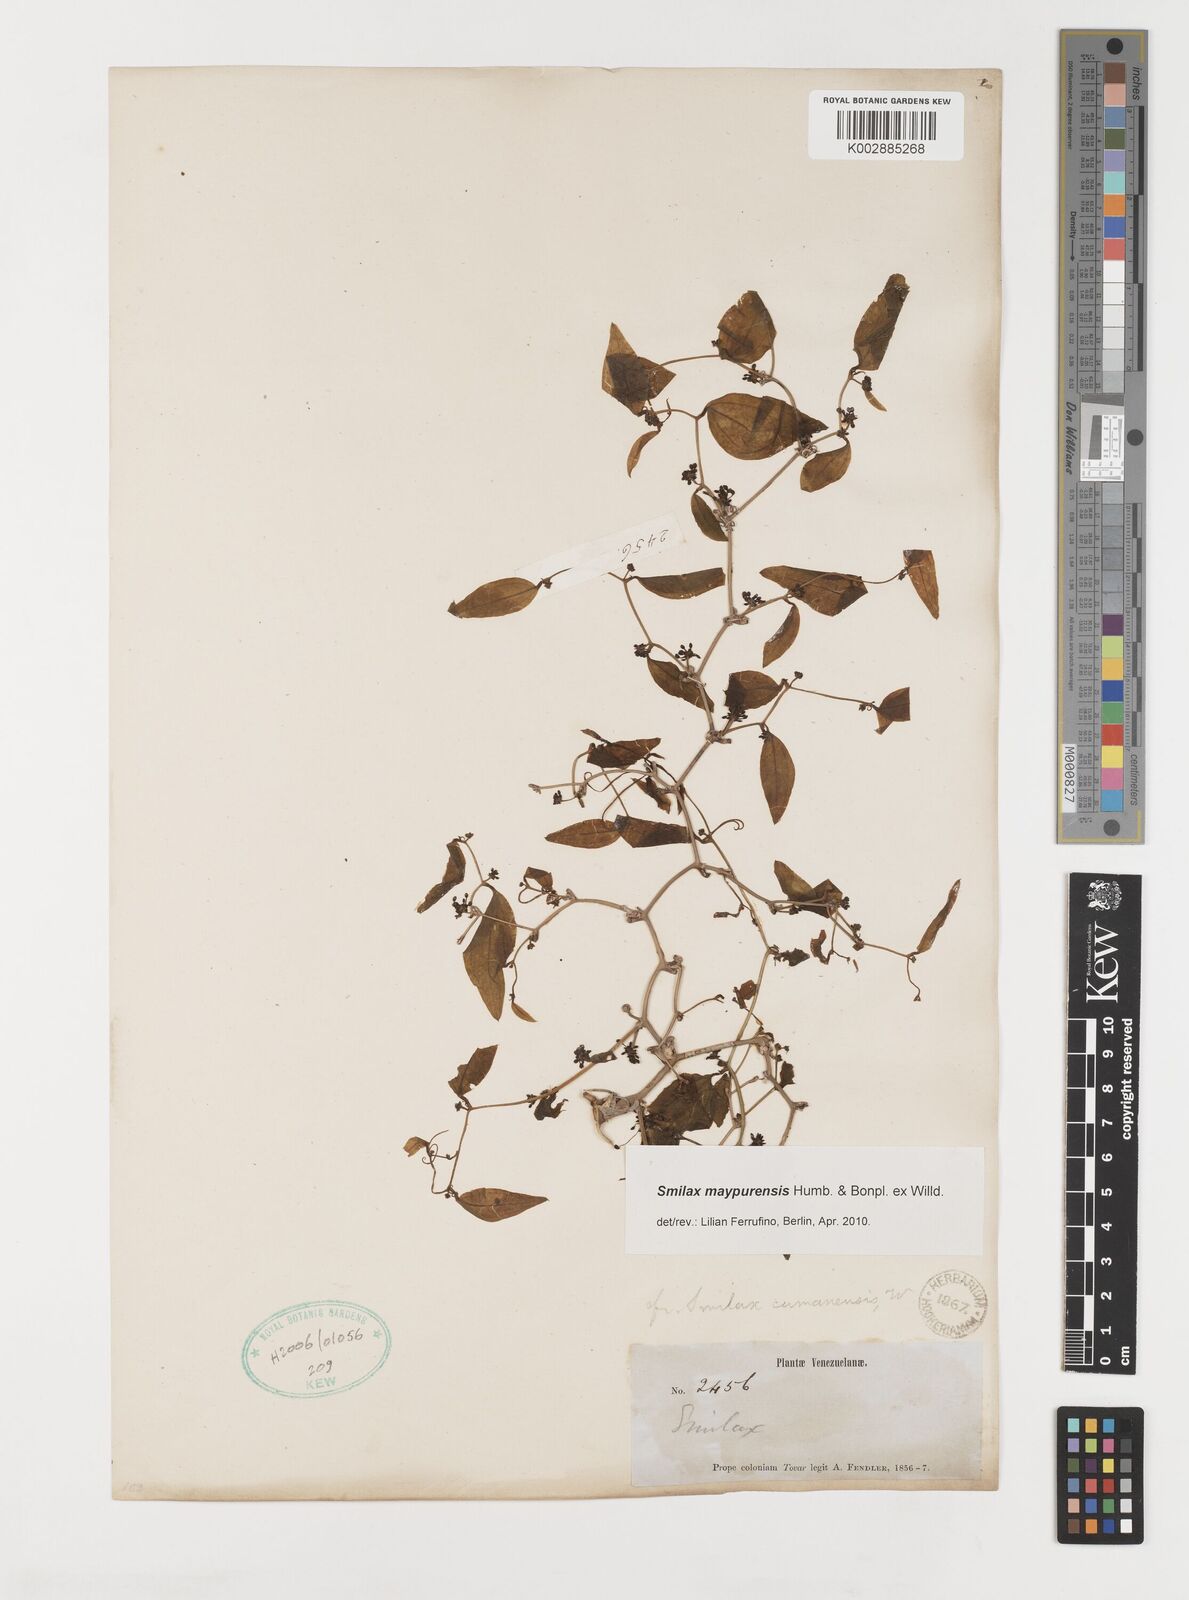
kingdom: Plantae
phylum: Tracheophyta
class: Liliopsida
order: Liliales
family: Smilacaceae
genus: Smilax
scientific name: Smilax maypurensis
